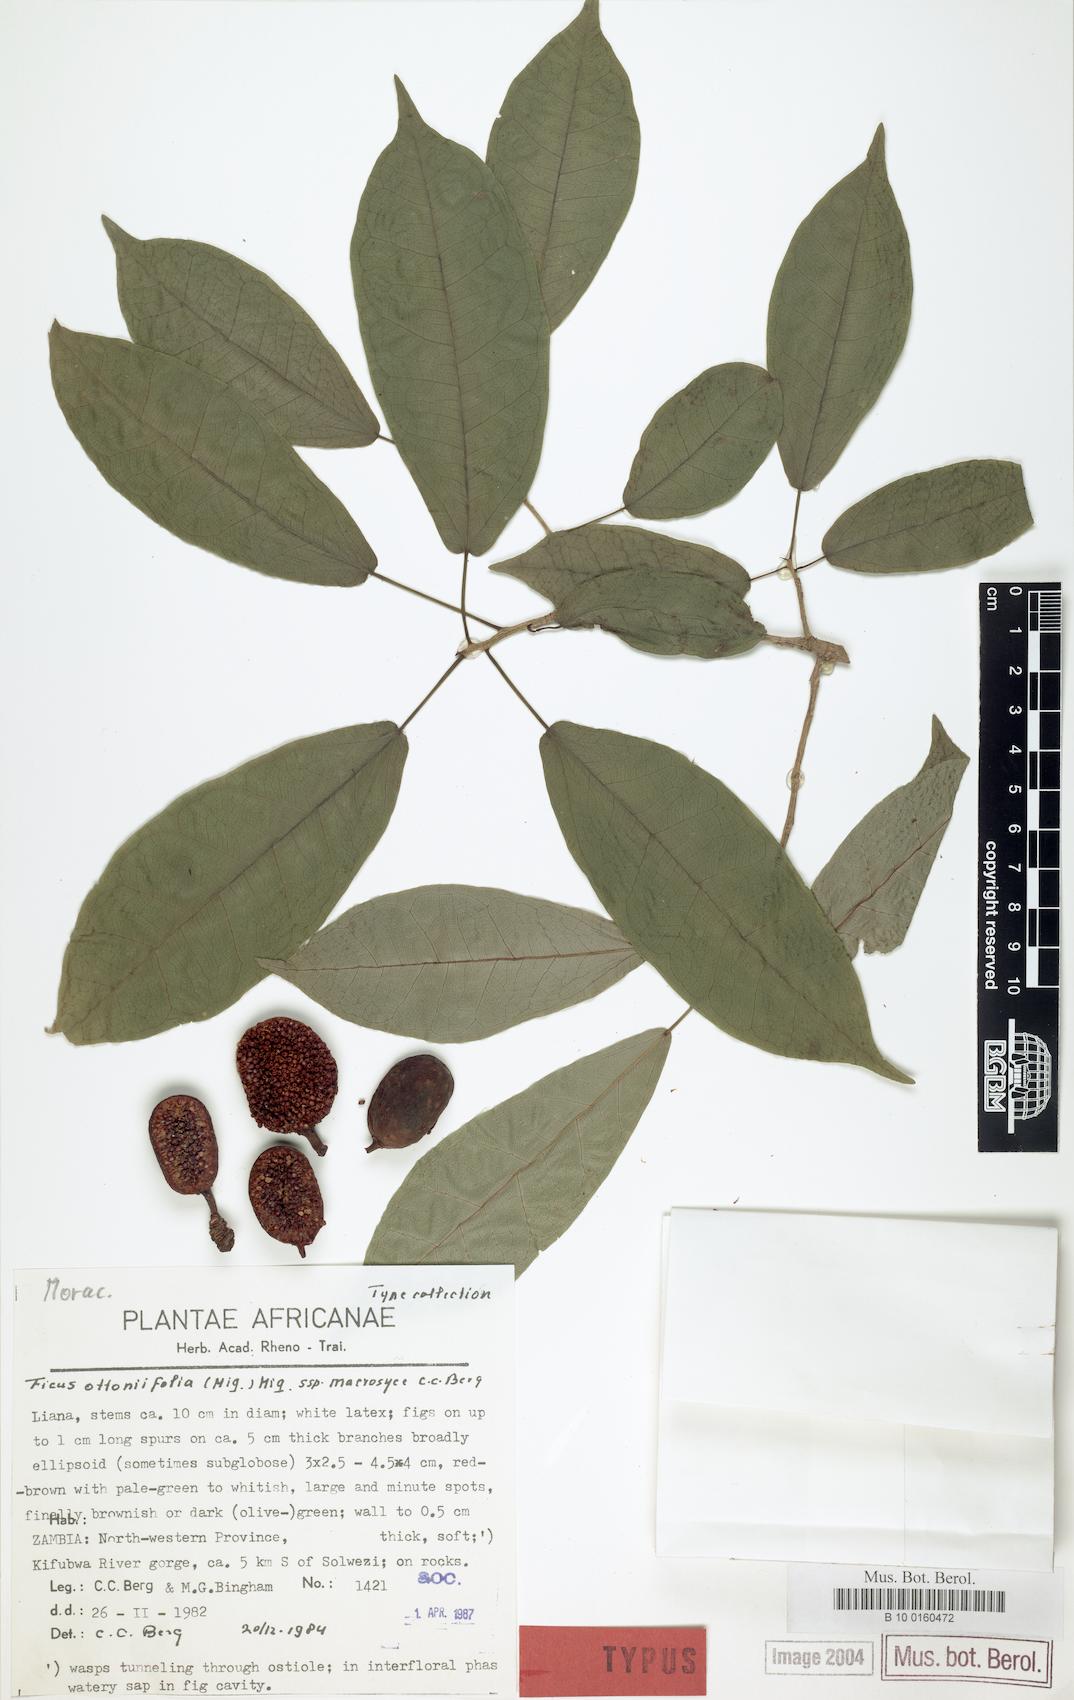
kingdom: Plantae
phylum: Tracheophyta
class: Magnoliopsida
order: Rosales
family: Moraceae
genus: Ficus
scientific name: Ficus ottoniifolia
